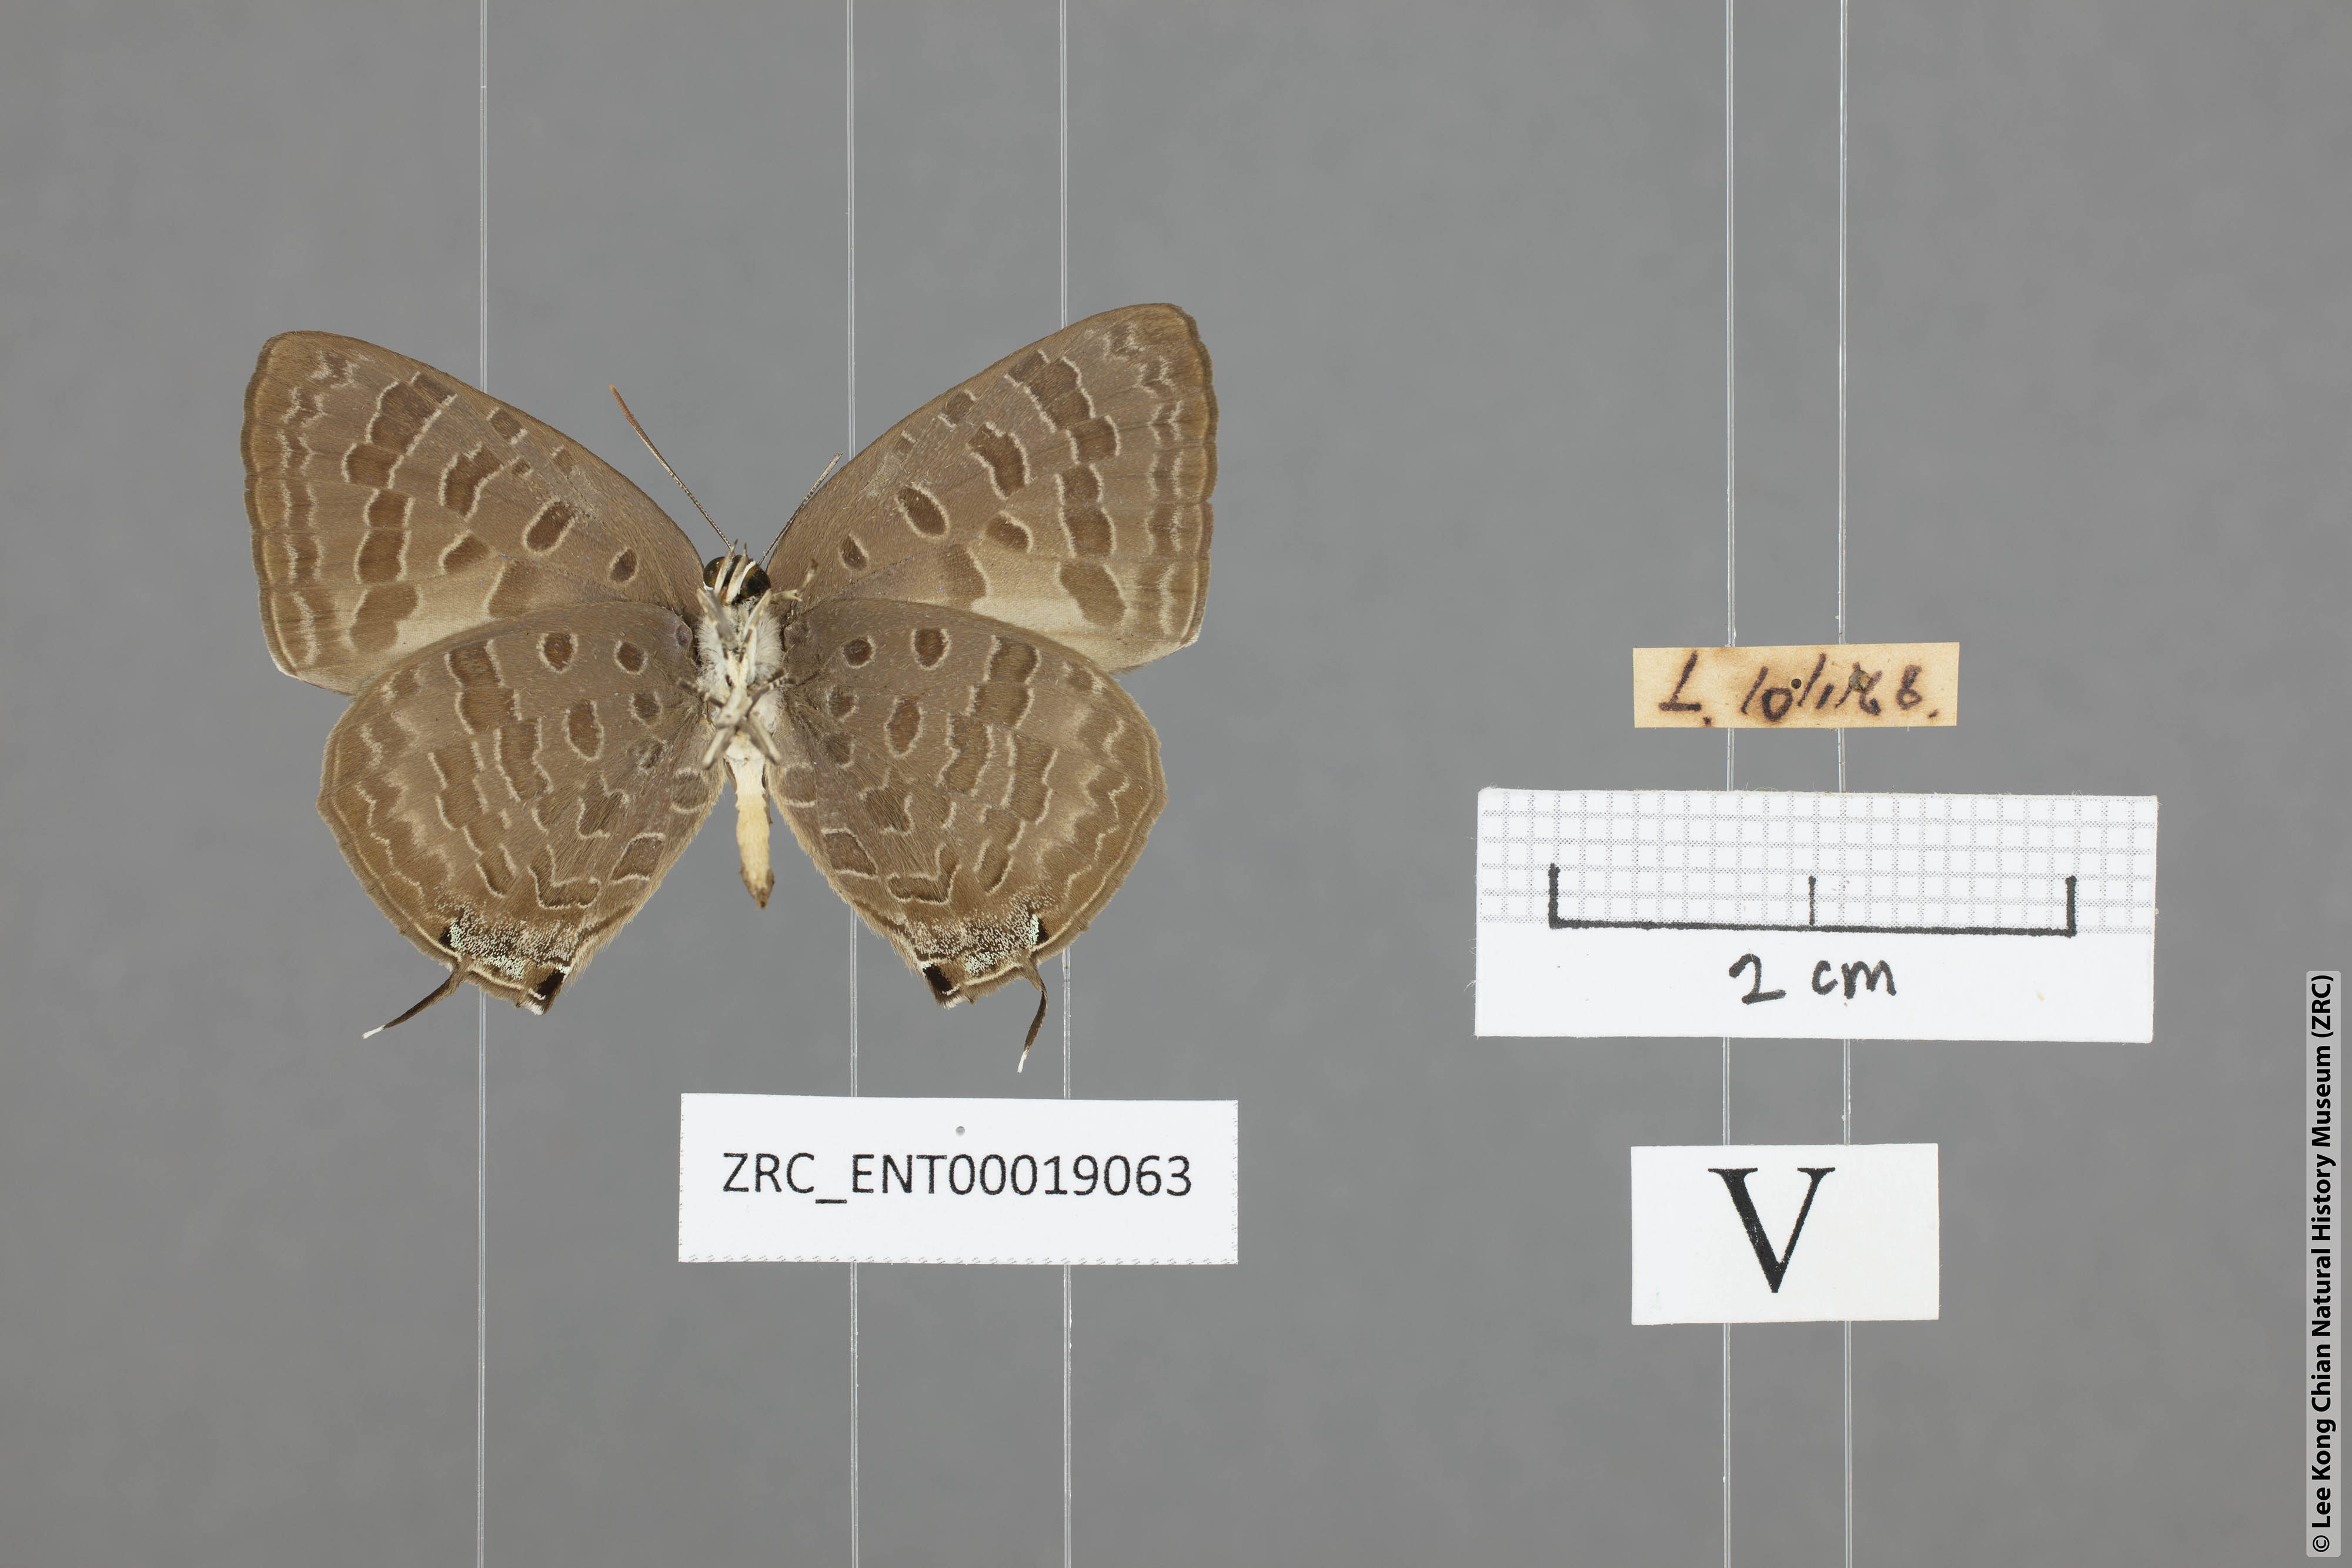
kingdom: Animalia
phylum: Arthropoda
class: Insecta
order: Lepidoptera
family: Lycaenidae
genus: Arhopala
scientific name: Arhopala aida
